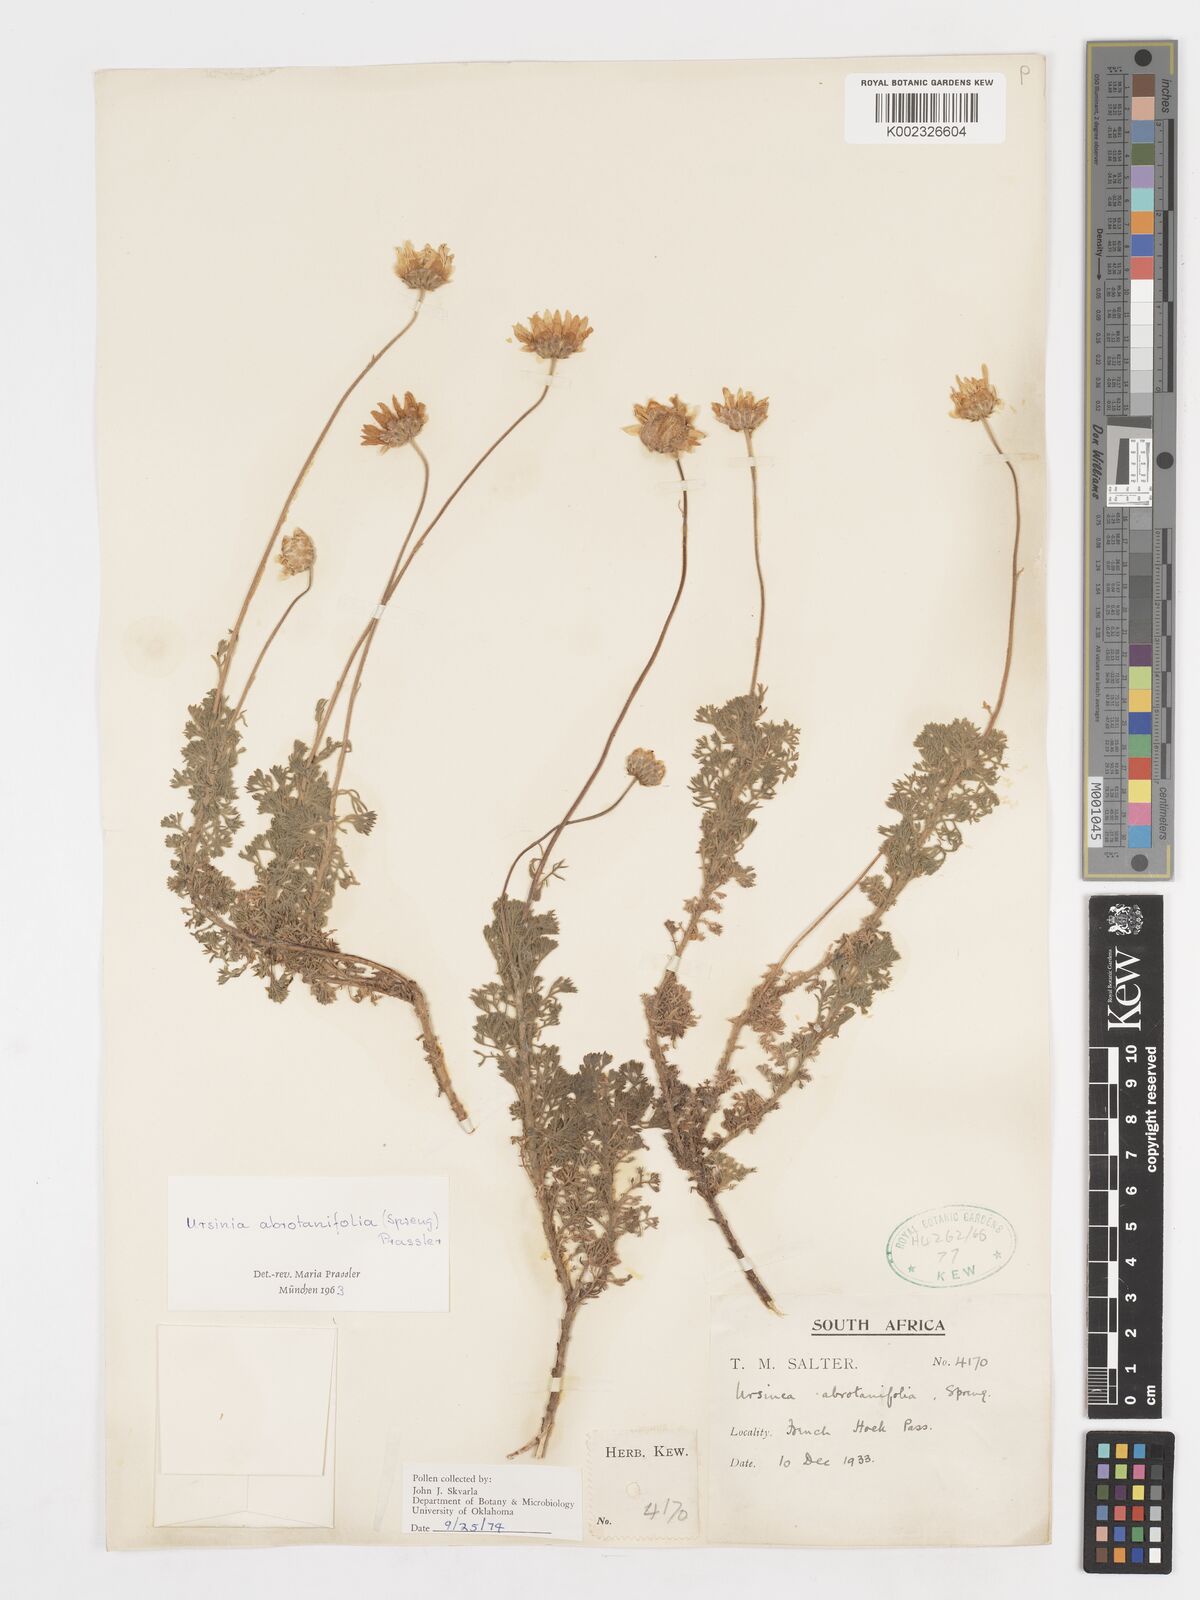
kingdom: Plantae
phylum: Tracheophyta
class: Magnoliopsida
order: Asterales
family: Asteraceae
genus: Ursinia
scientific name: Ursinia abrotanifolia
